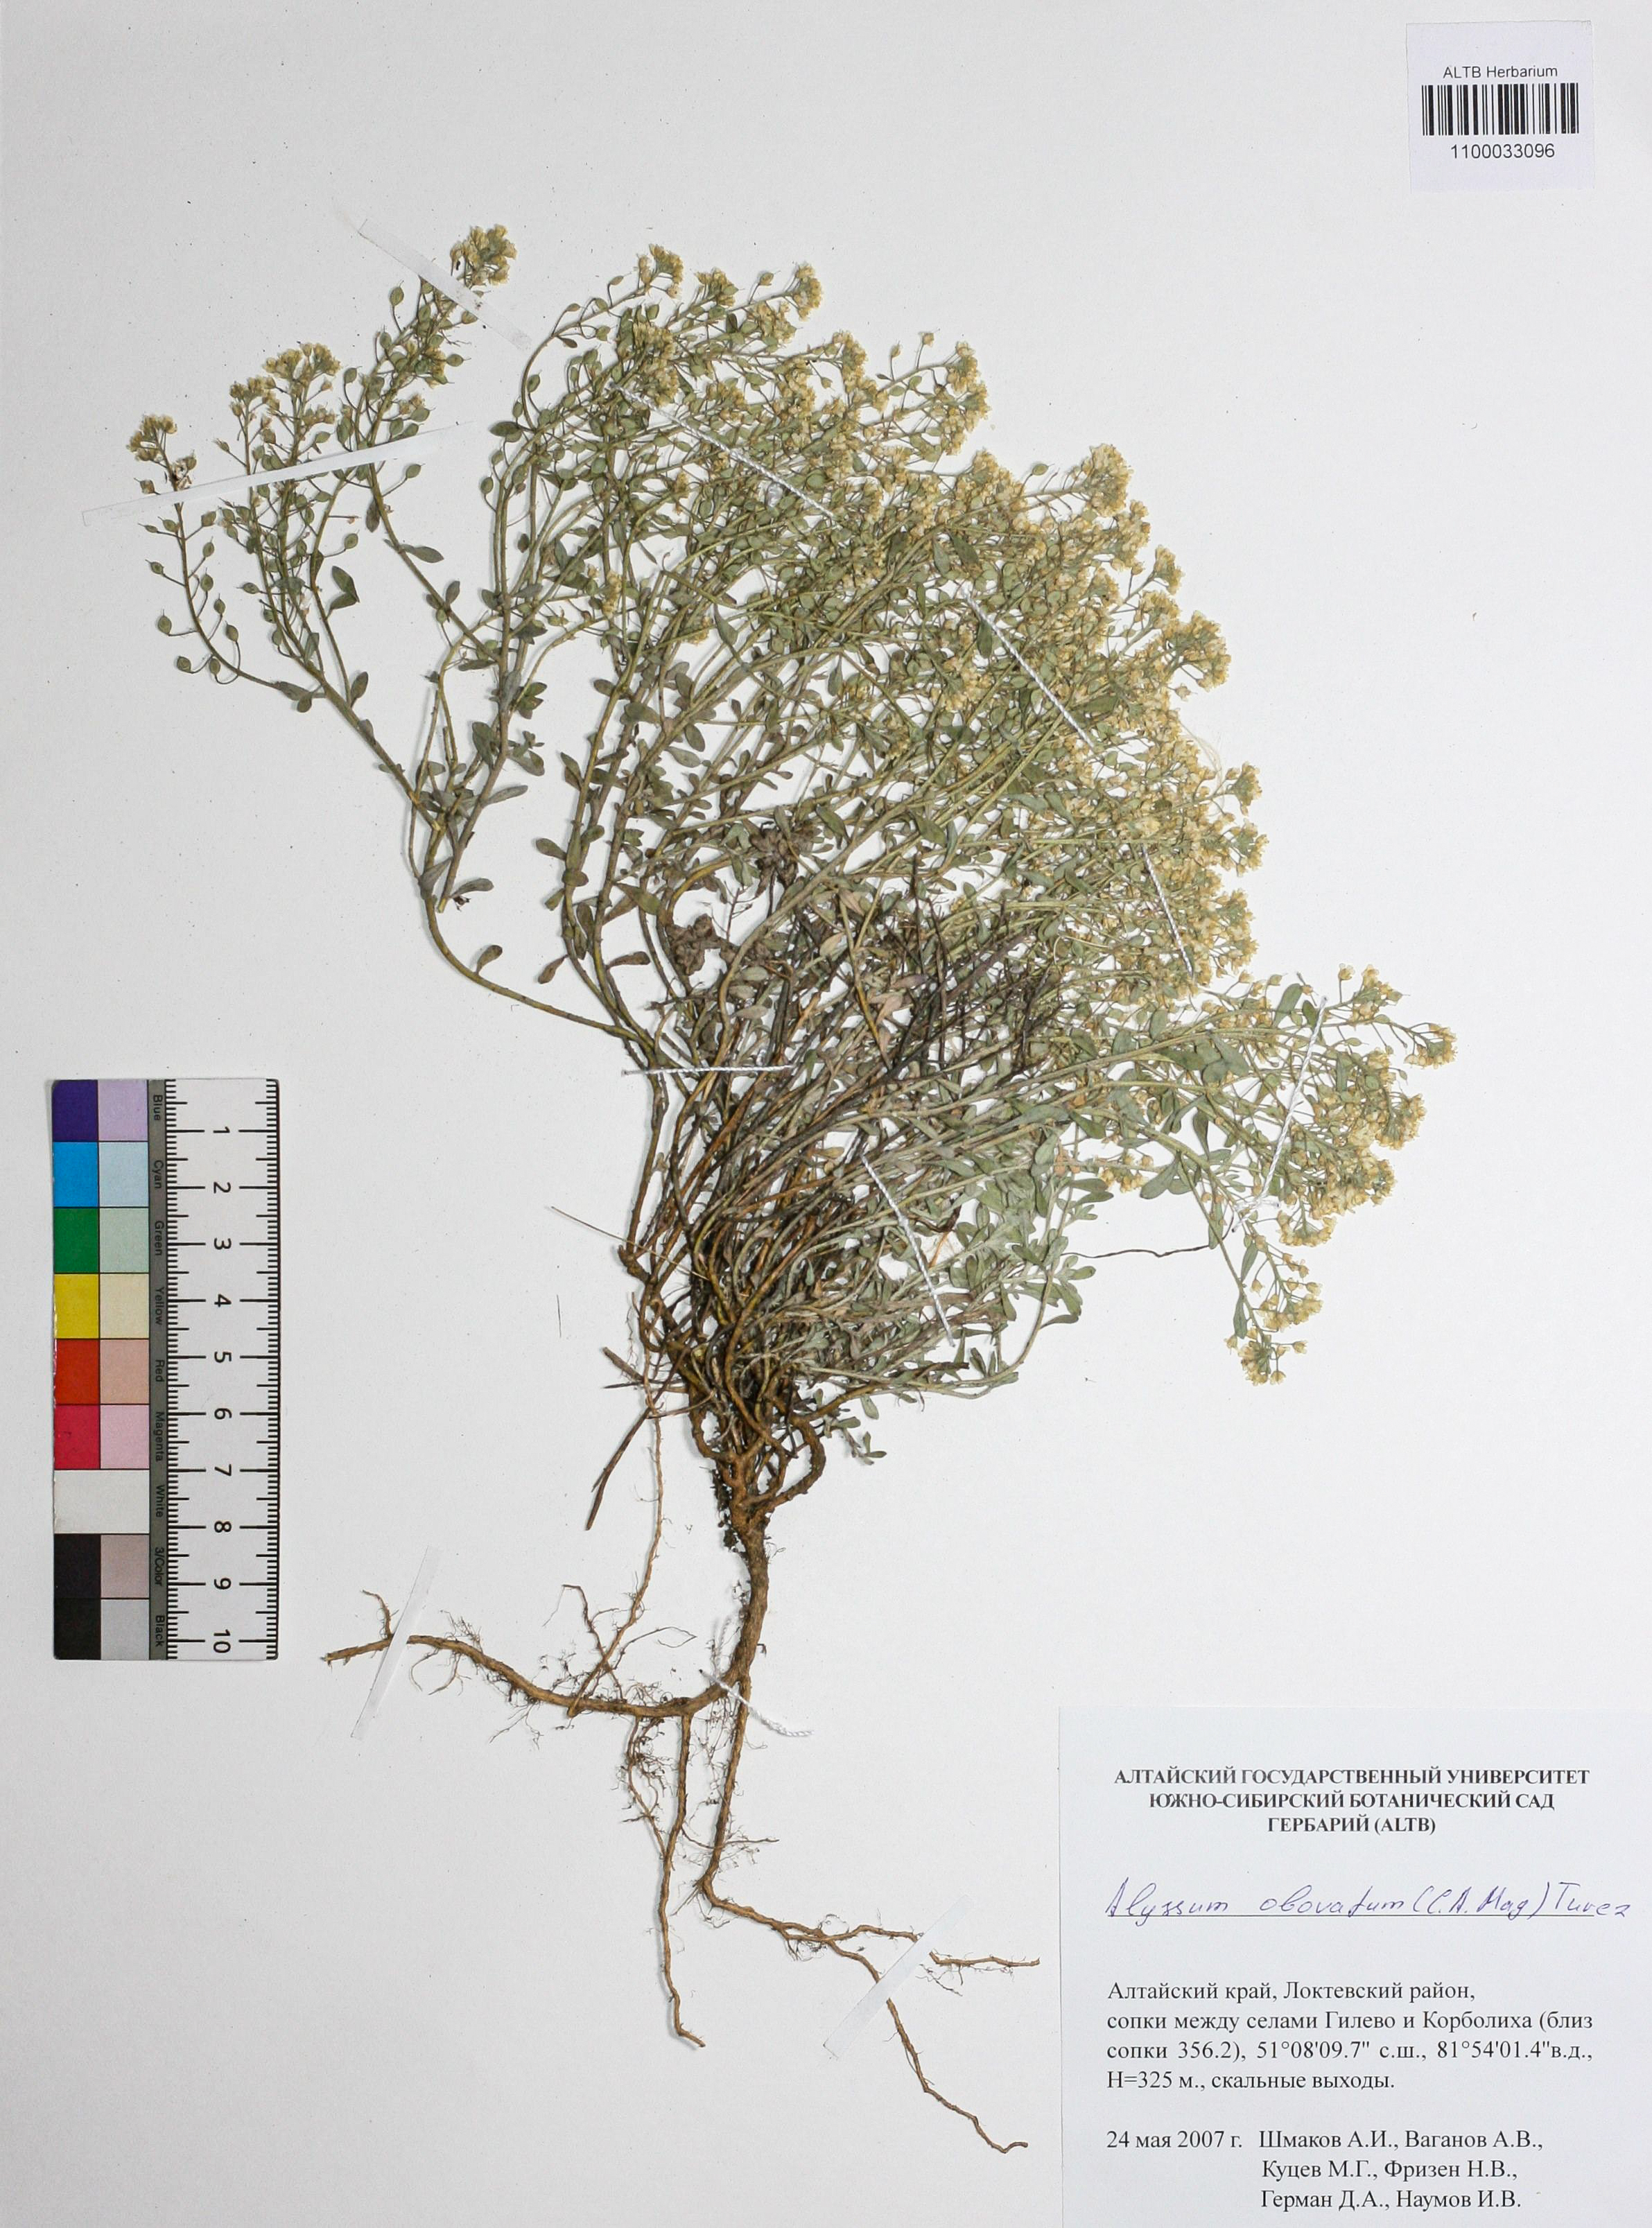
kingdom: Plantae
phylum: Tracheophyta
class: Magnoliopsida
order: Brassicales
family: Brassicaceae
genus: Odontarrhena
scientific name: Odontarrhena obovata
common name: American alyssum
